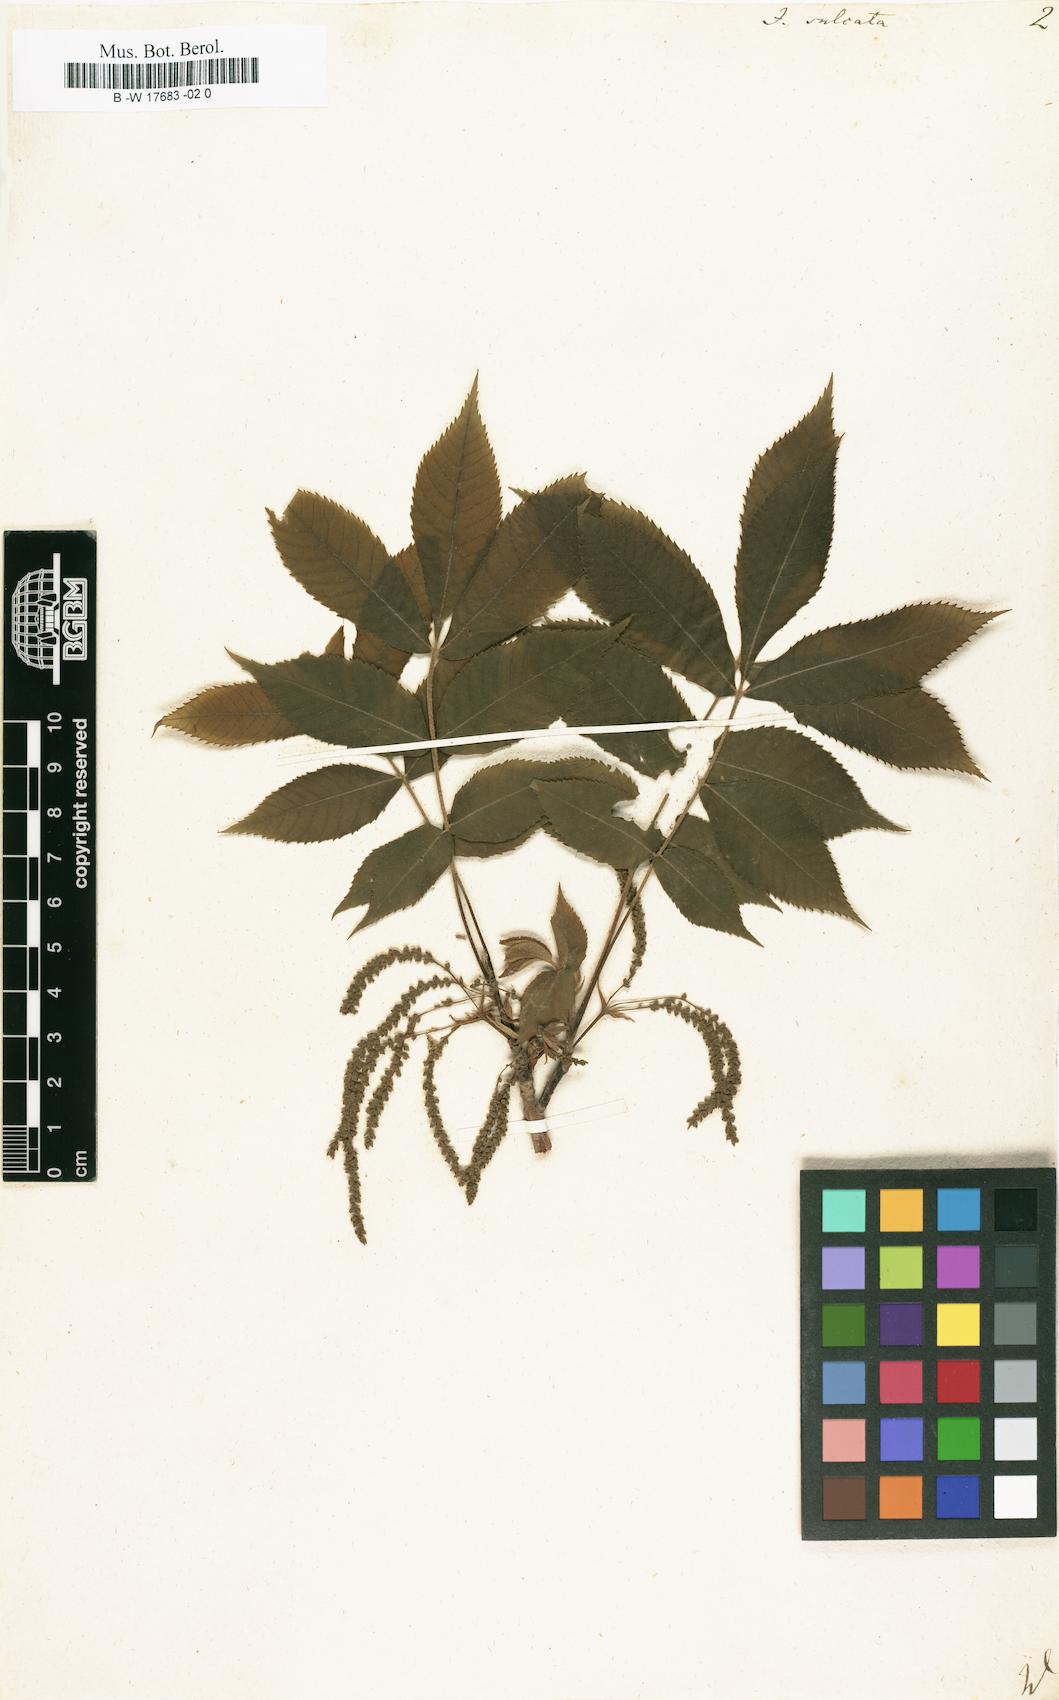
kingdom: Plantae
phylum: Tracheophyta
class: Magnoliopsida
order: Fagales
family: Juglandaceae
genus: Carya
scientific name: Carya laciniosa
